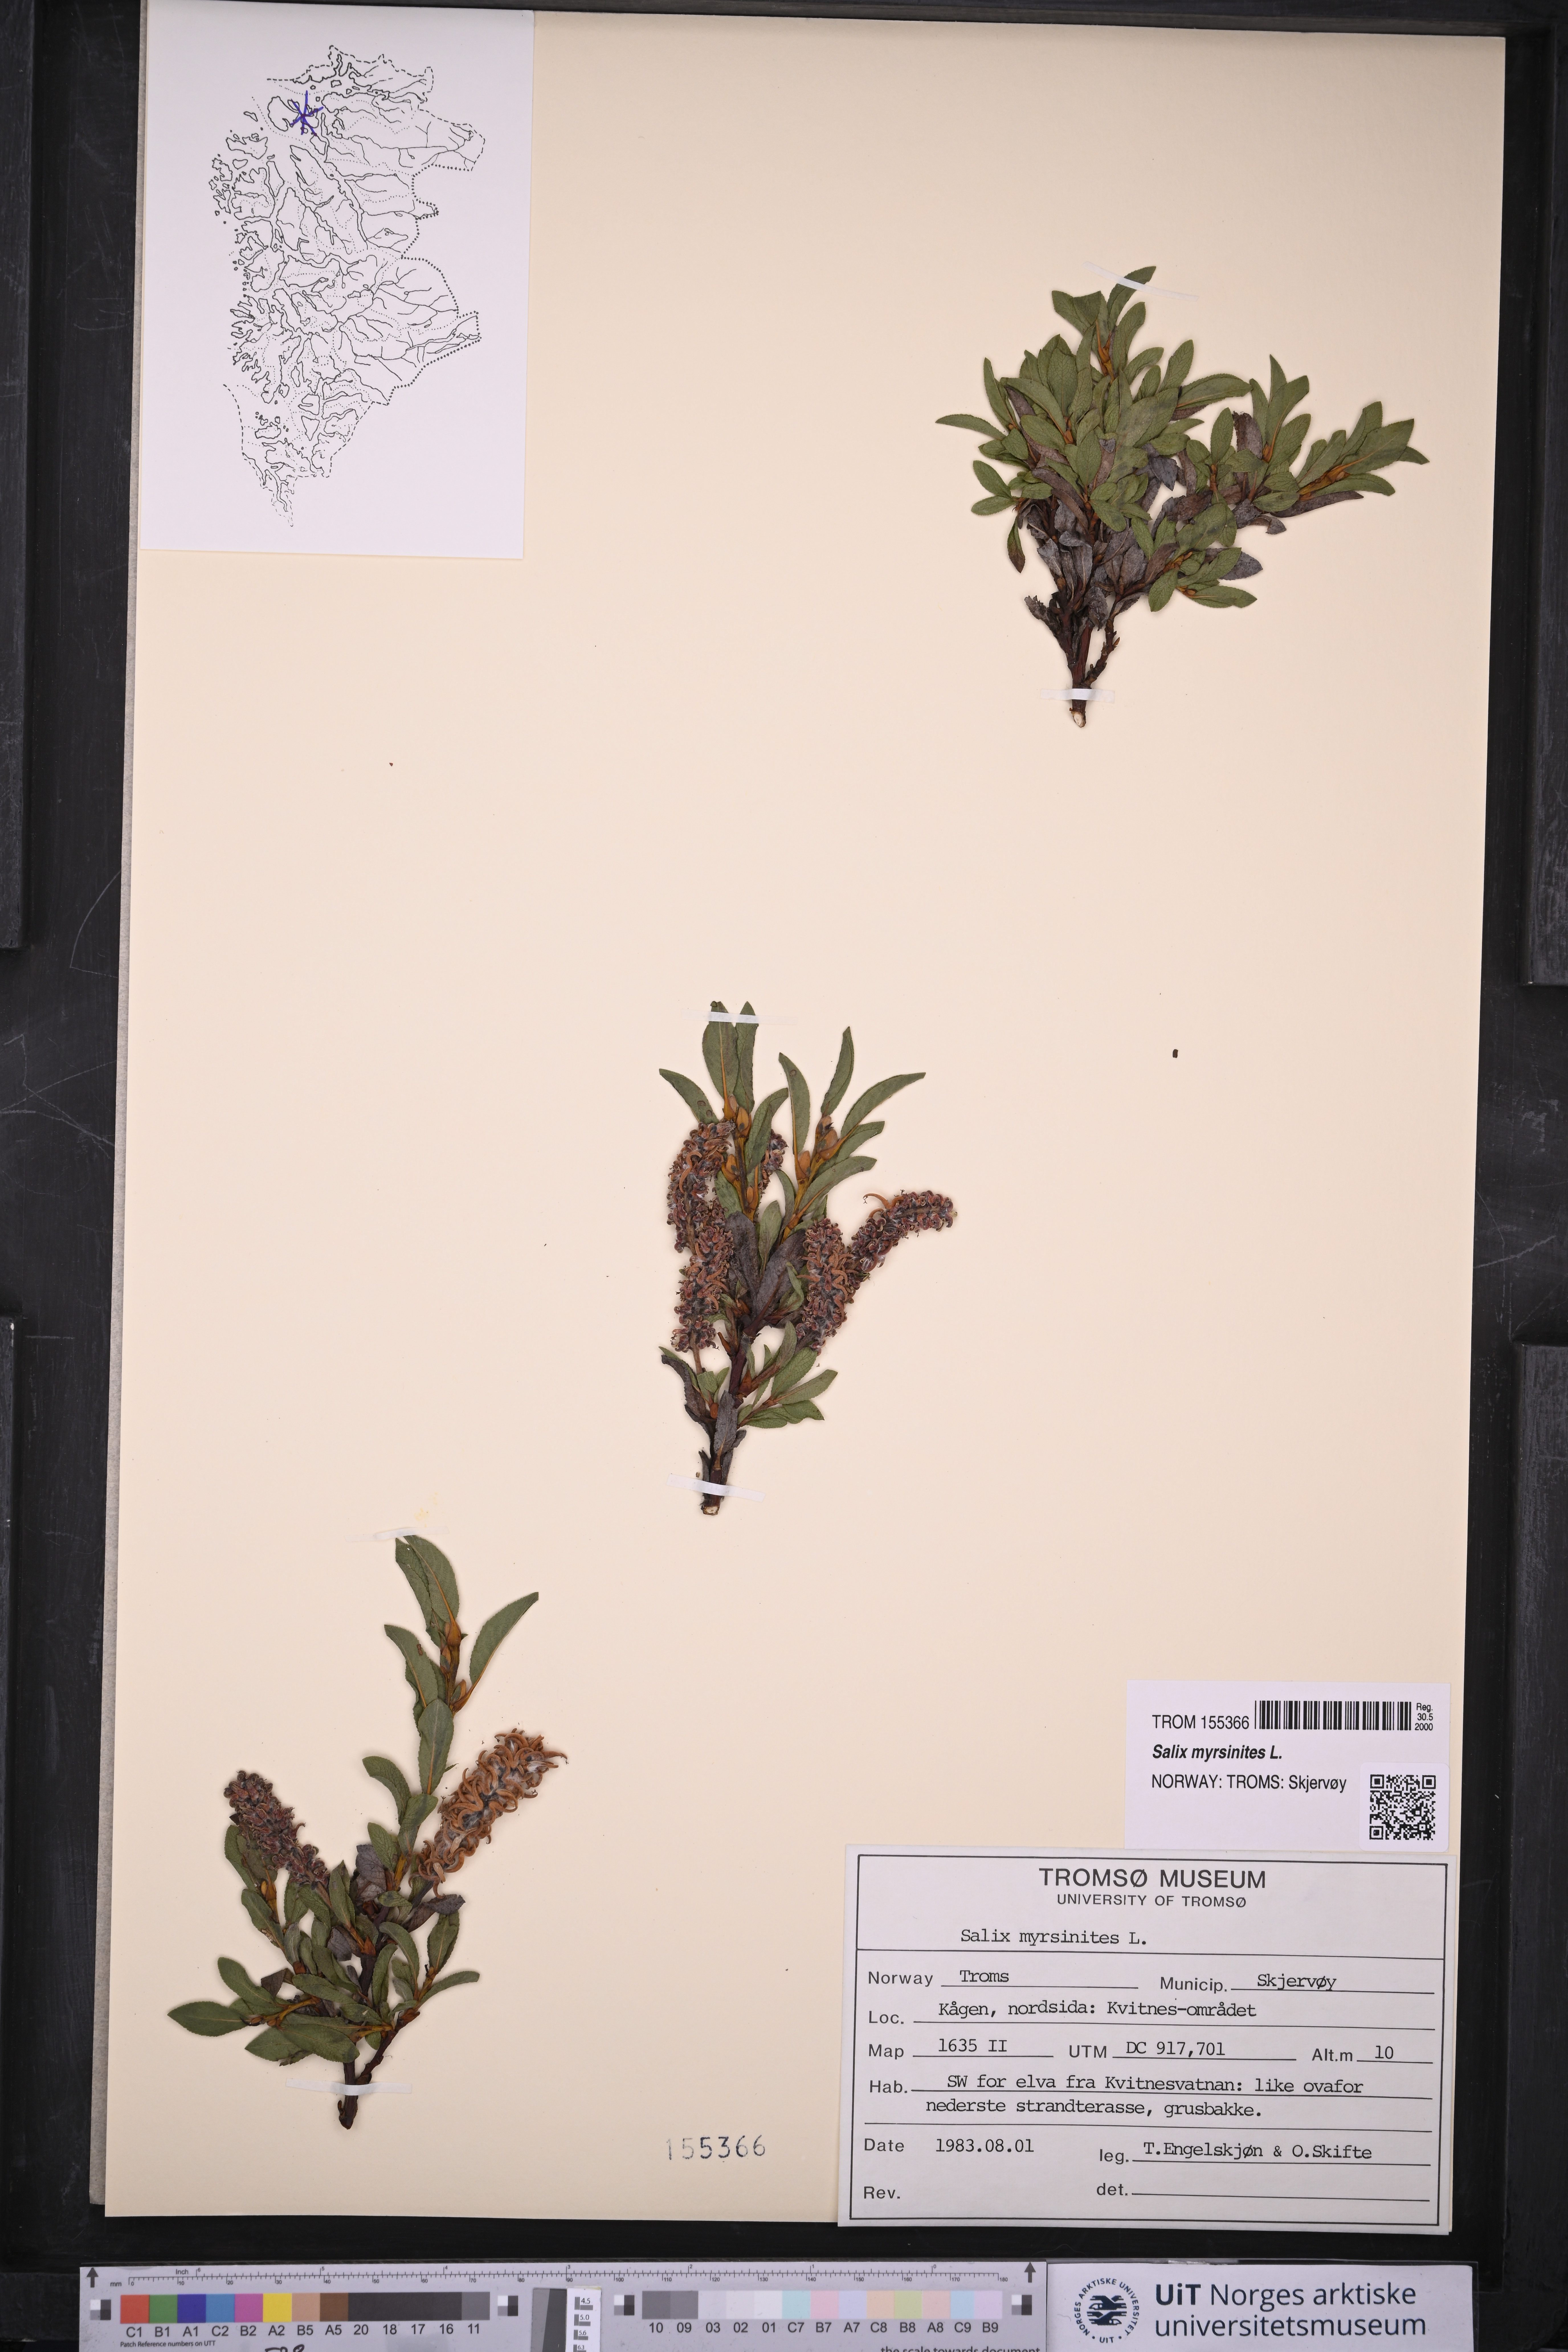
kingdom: Plantae
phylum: Tracheophyta
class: Magnoliopsida
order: Malpighiales
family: Salicaceae
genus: Salix
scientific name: Salix myrsinites
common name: Myrtle willow
